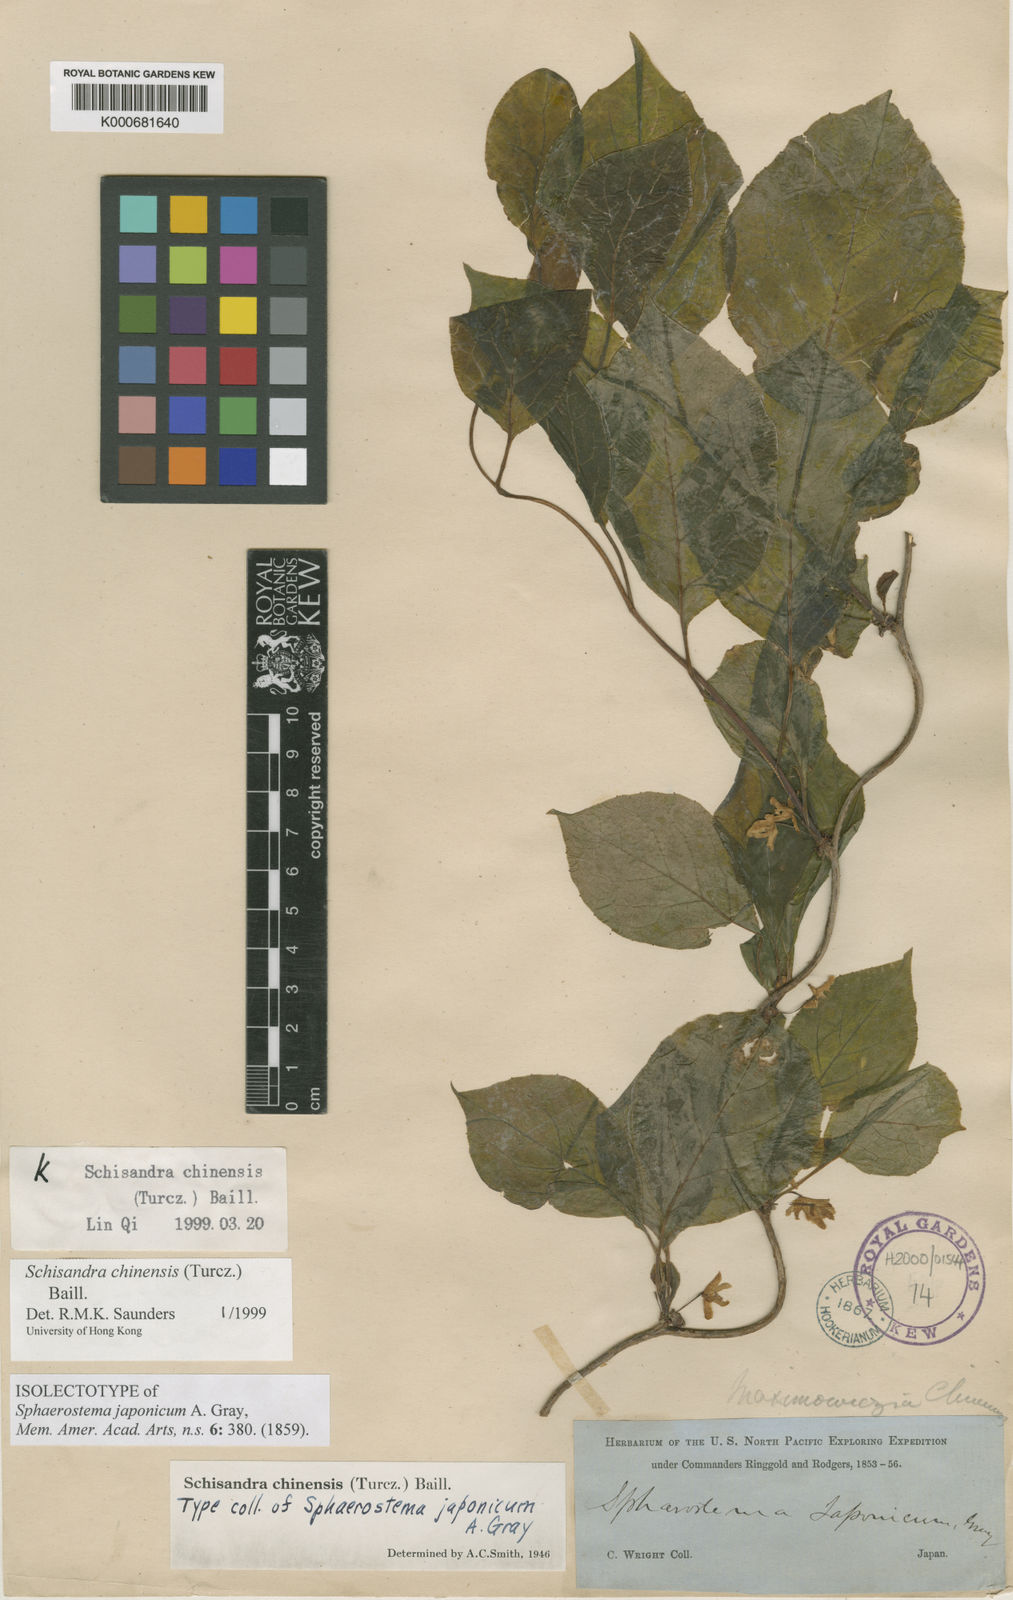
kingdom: Plantae
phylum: Tracheophyta
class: Magnoliopsida
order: Austrobaileyales
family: Schisandraceae
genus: Schisandra
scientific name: Schisandra chinensis
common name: Magnolia-vine
